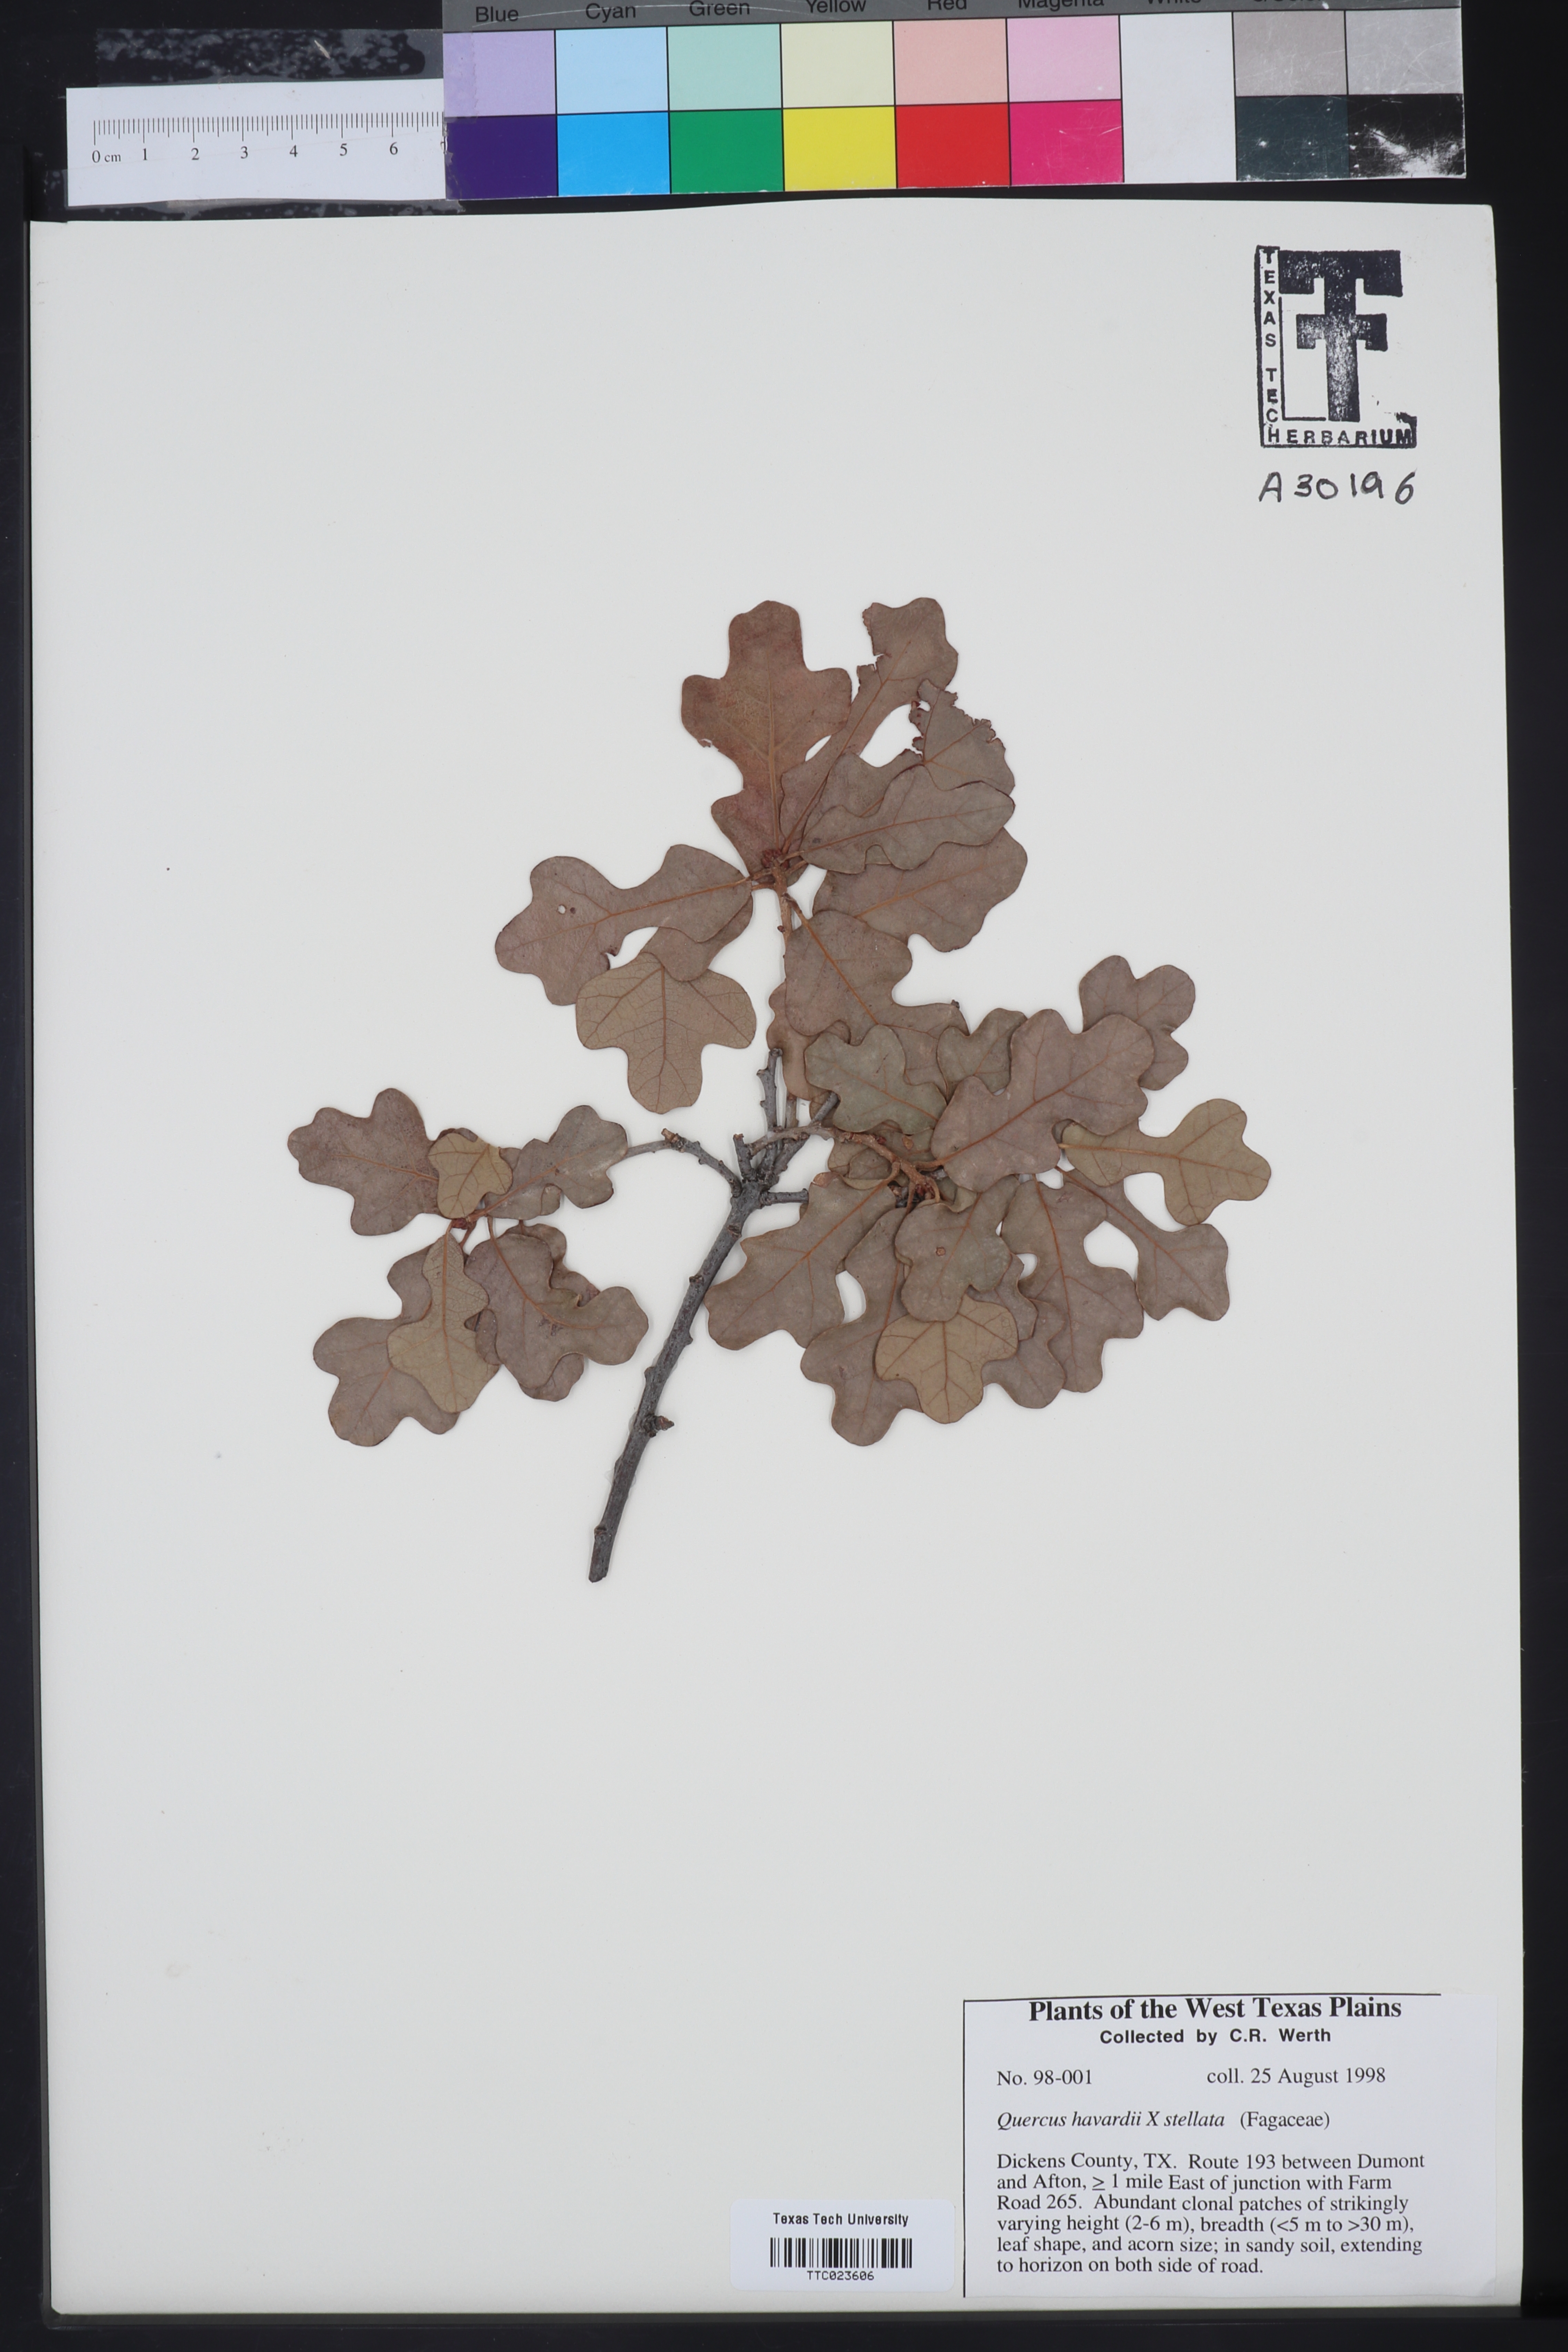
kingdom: Plantae
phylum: Tracheophyta
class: Magnoliopsida
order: Fagales
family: Fagaceae
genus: Quercus
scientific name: Quercus havardii
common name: Shinnery oak
